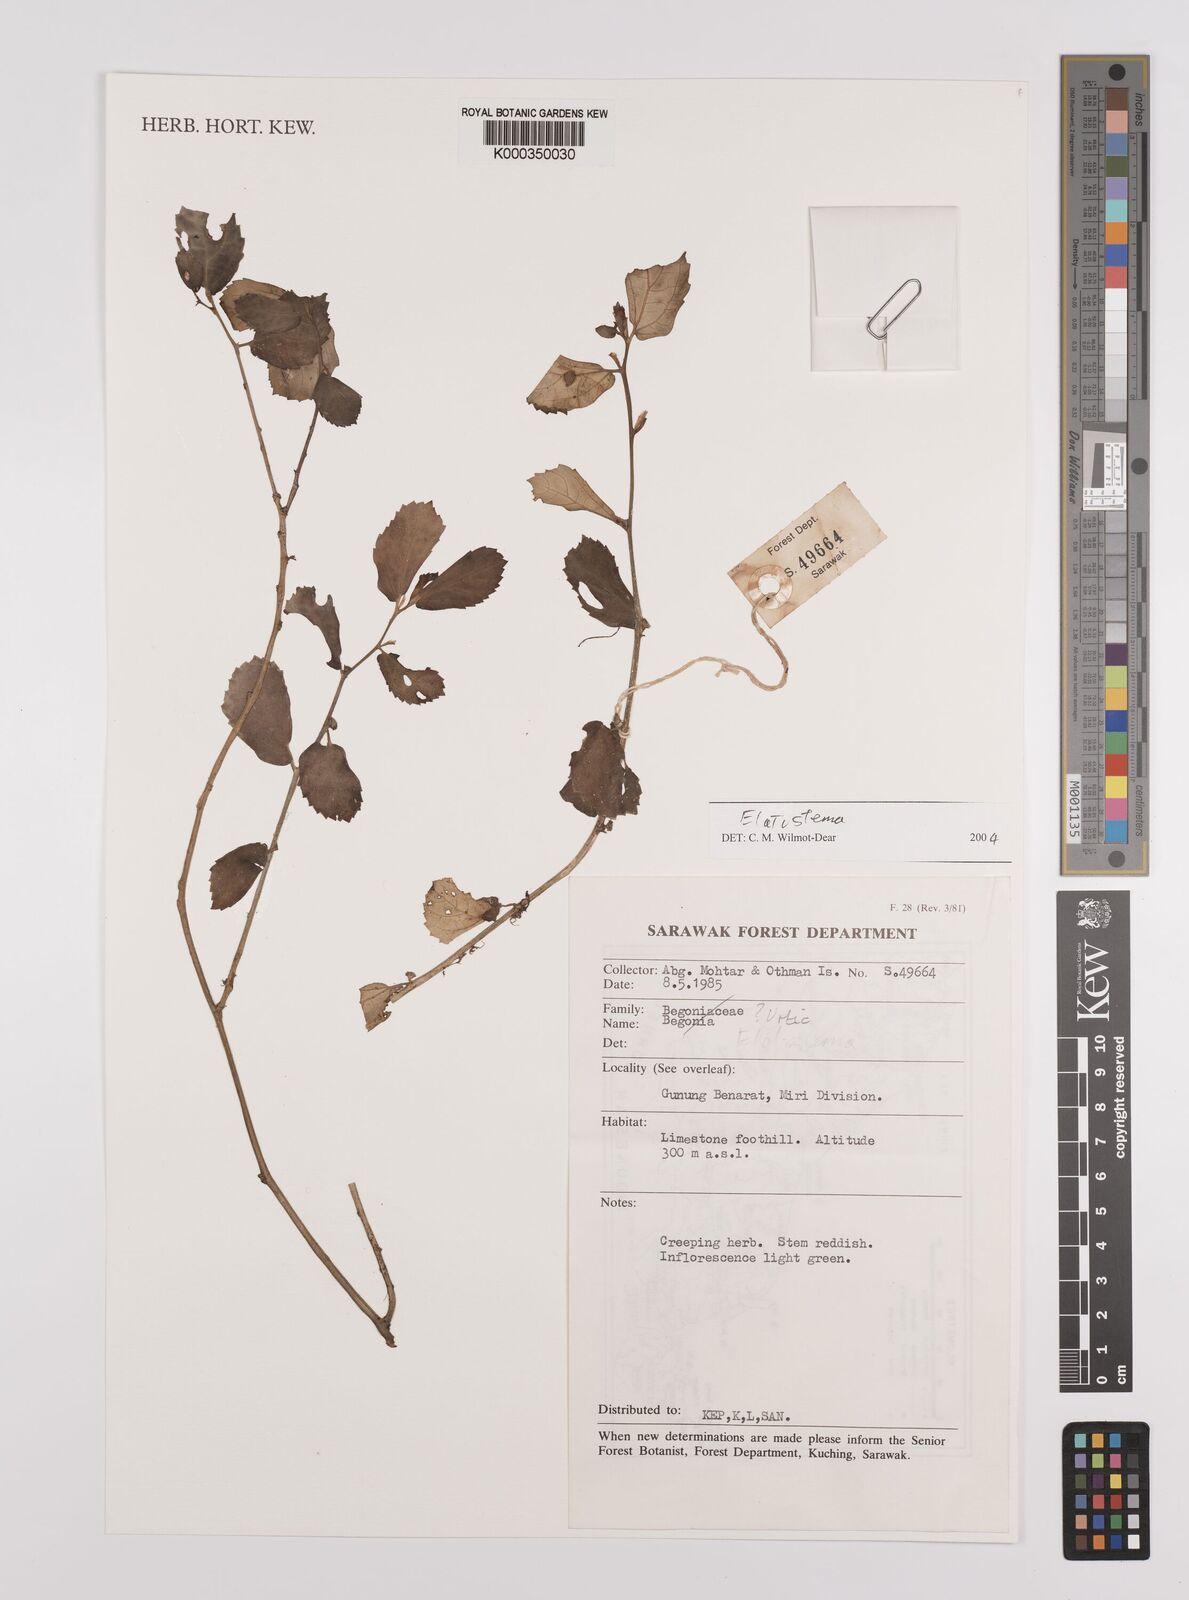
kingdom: Plantae
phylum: Tracheophyta
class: Magnoliopsida
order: Rosales
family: Urticaceae
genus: Elatostema
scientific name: Elatostema
